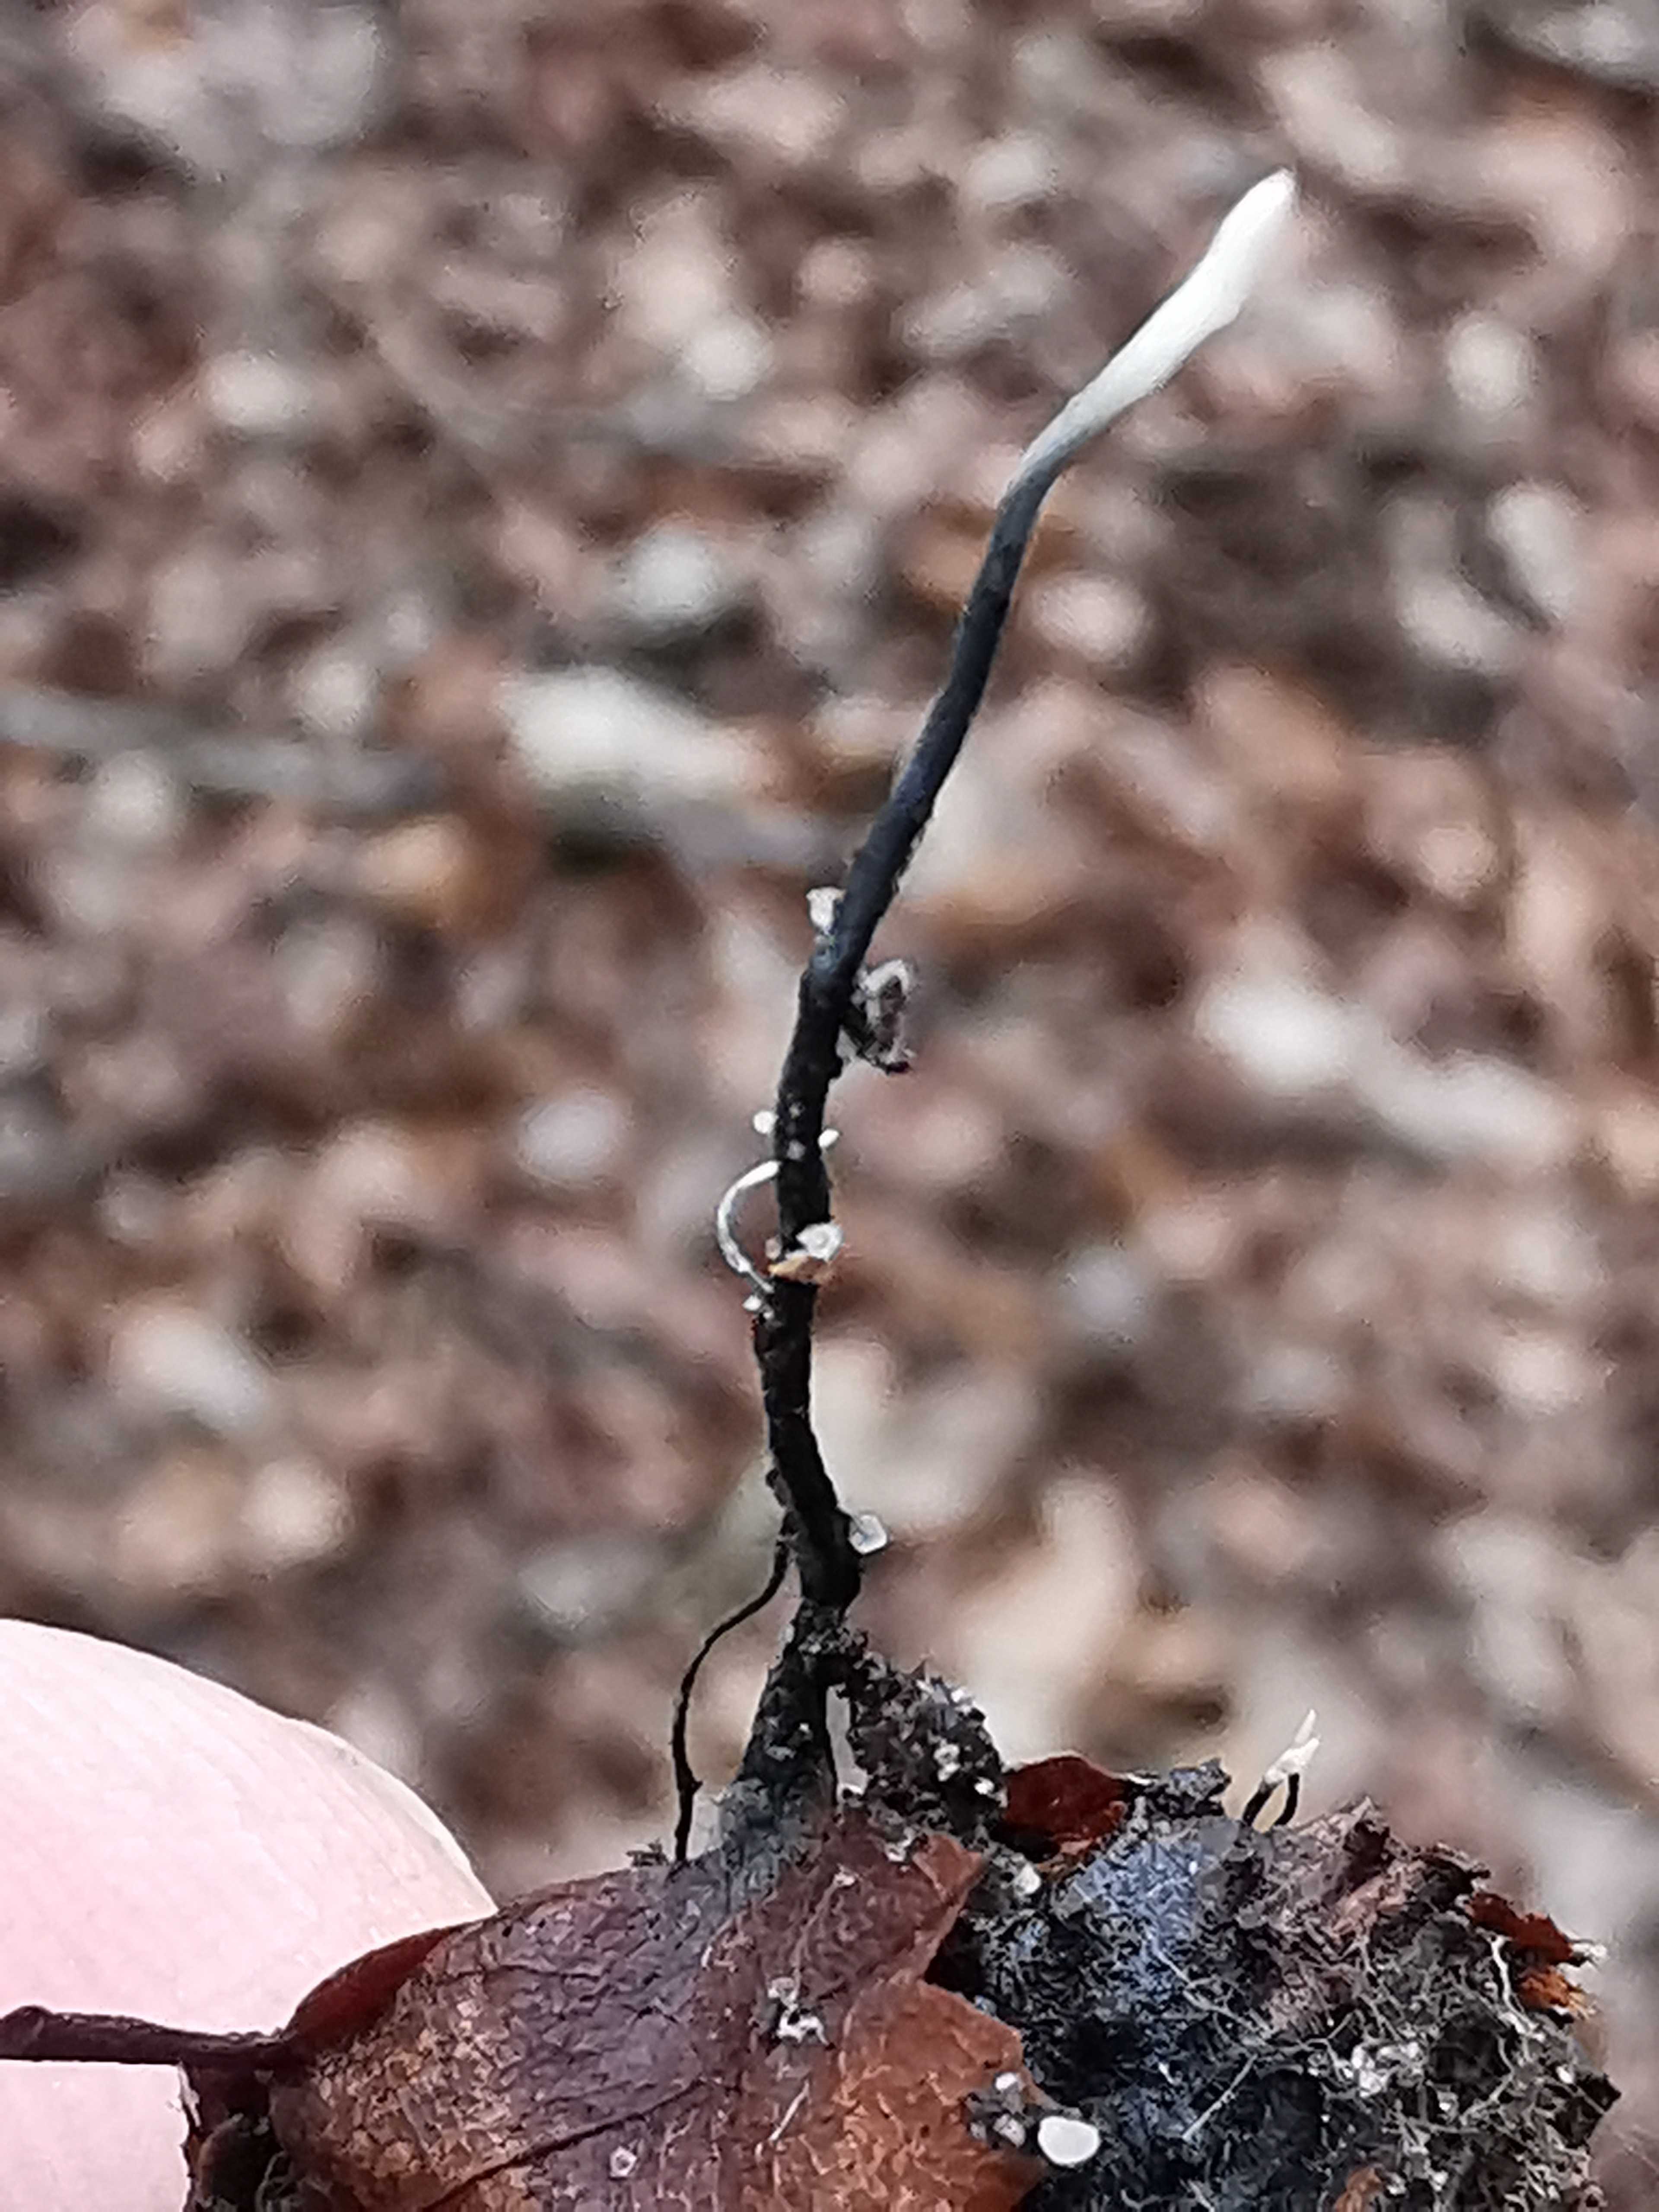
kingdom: Fungi
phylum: Ascomycota
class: Sordariomycetes
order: Xylariales
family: Xylariaceae
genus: Xylaria
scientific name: Xylaria carpophila
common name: bogskål-stødsvamp
